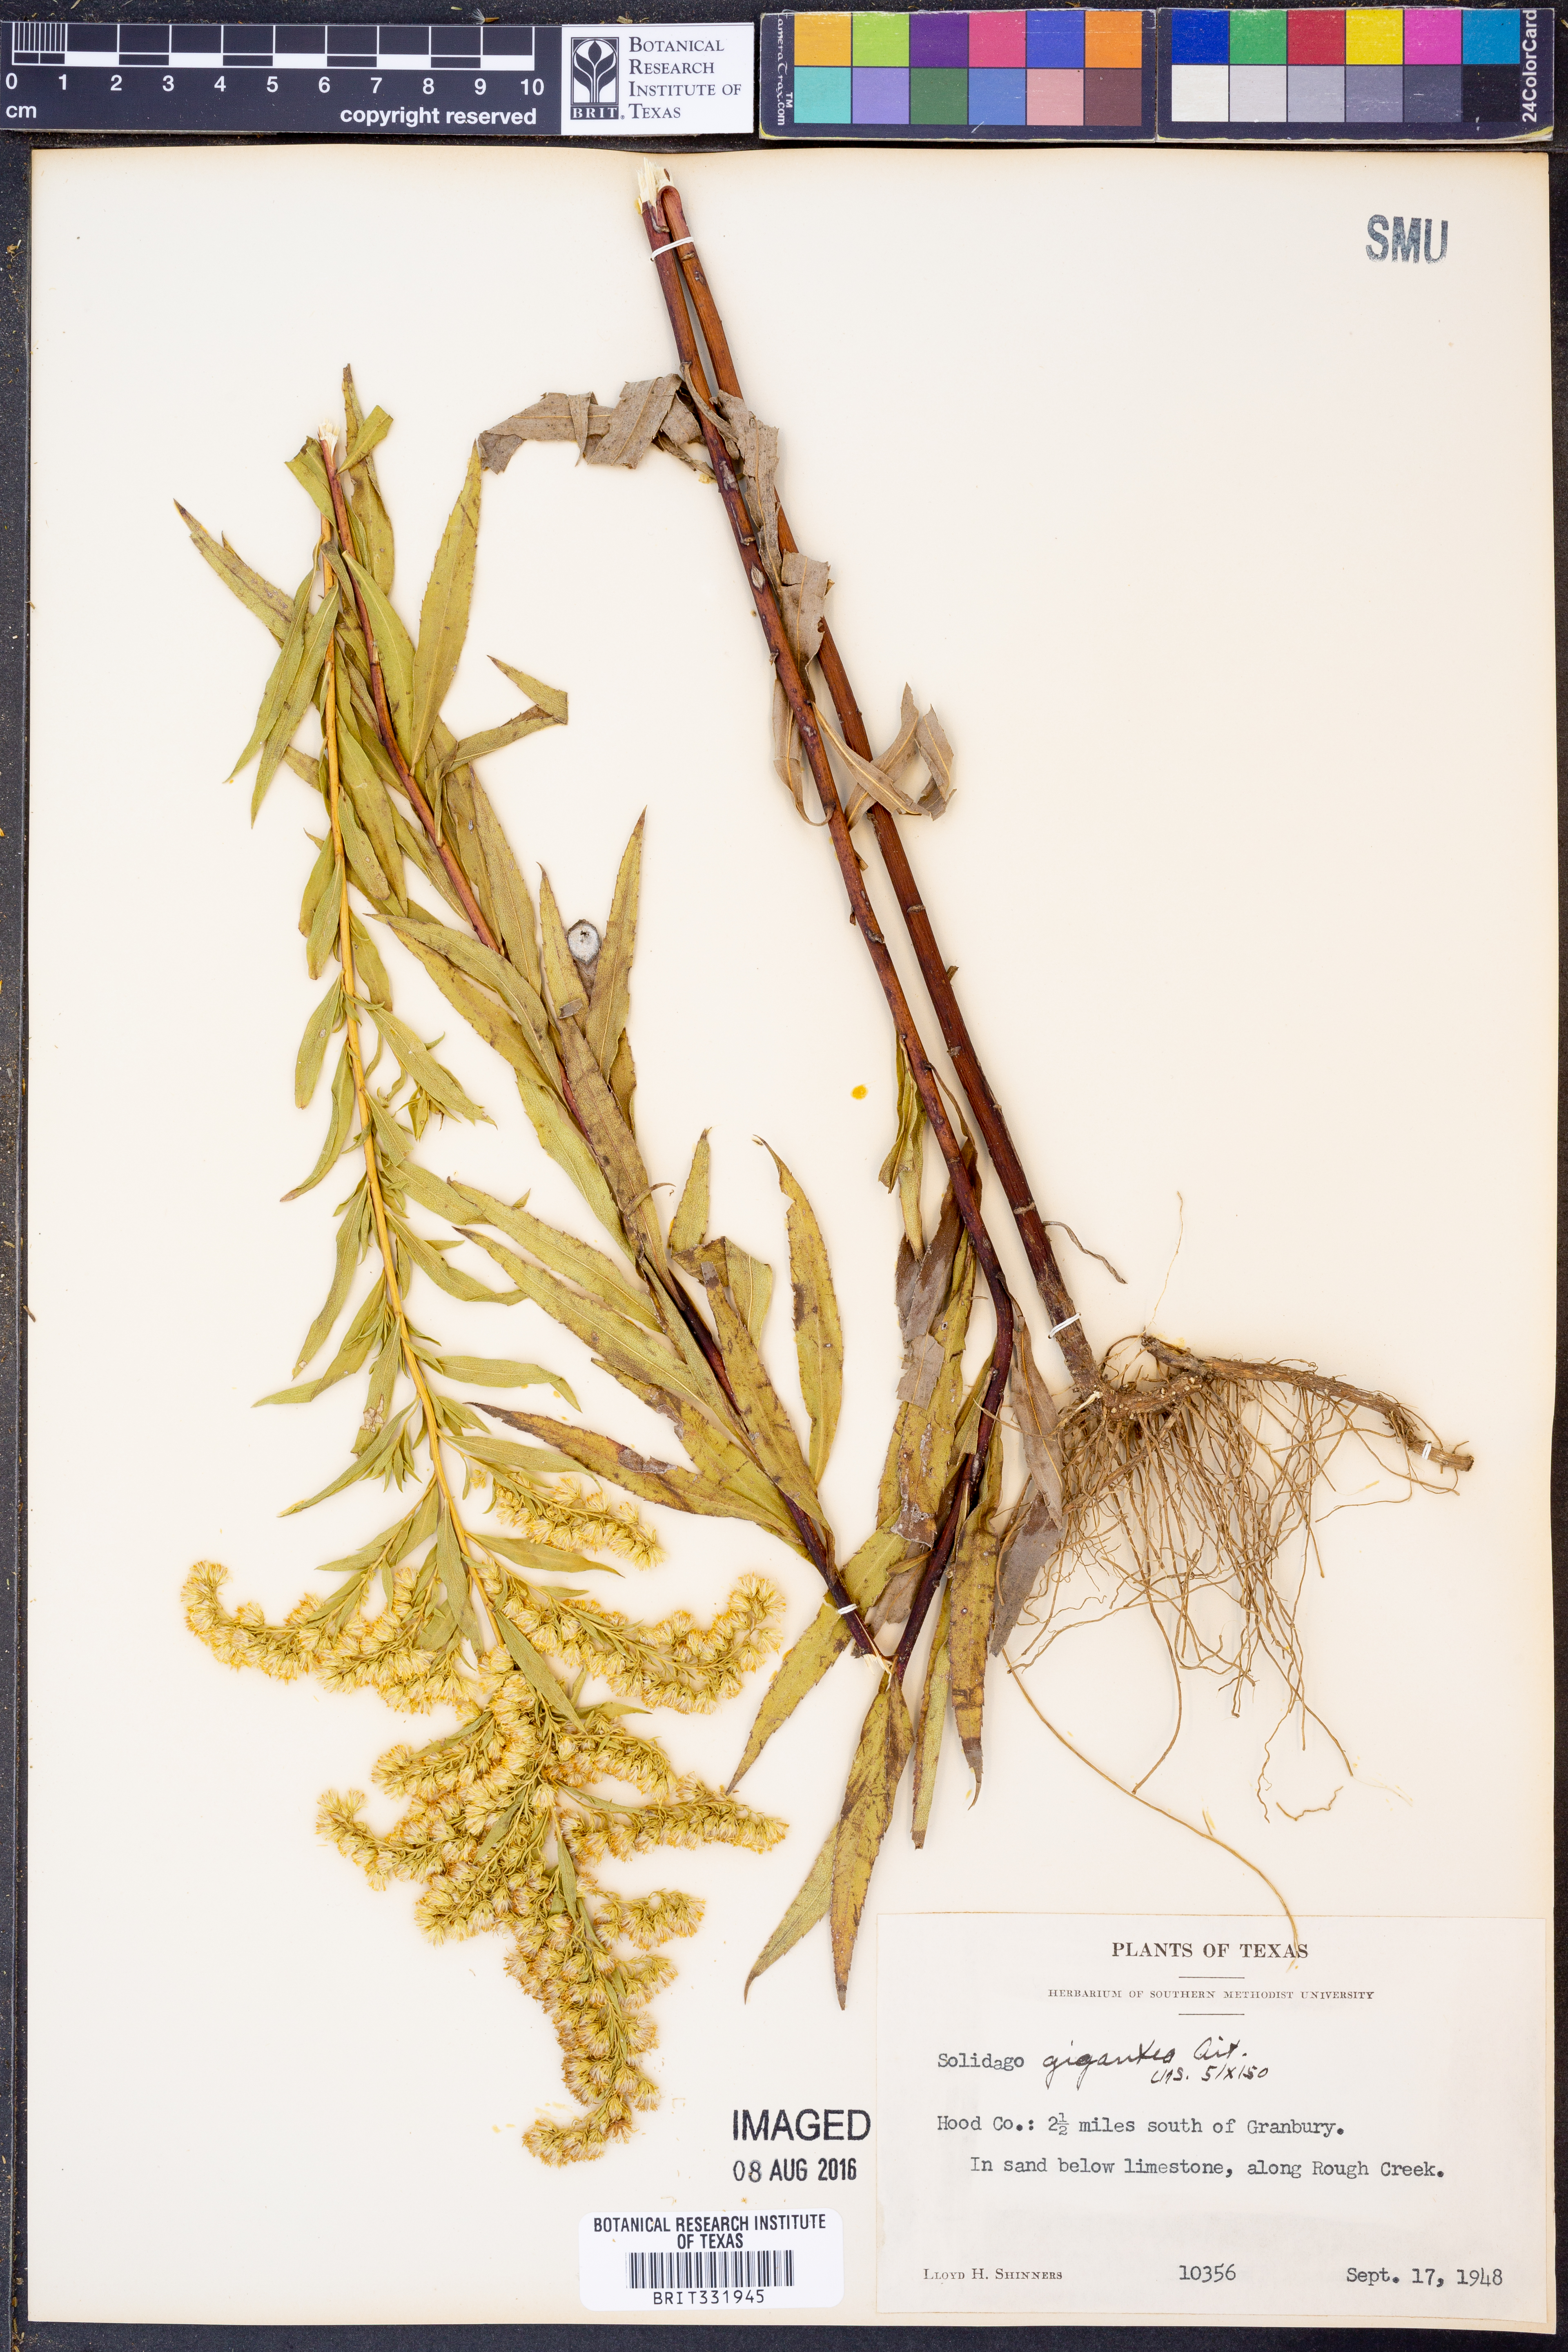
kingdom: Plantae
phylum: Tracheophyta
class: Magnoliopsida
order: Asterales
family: Asteraceae
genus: Solidago
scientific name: Solidago gigantea
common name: Giant goldenrod
